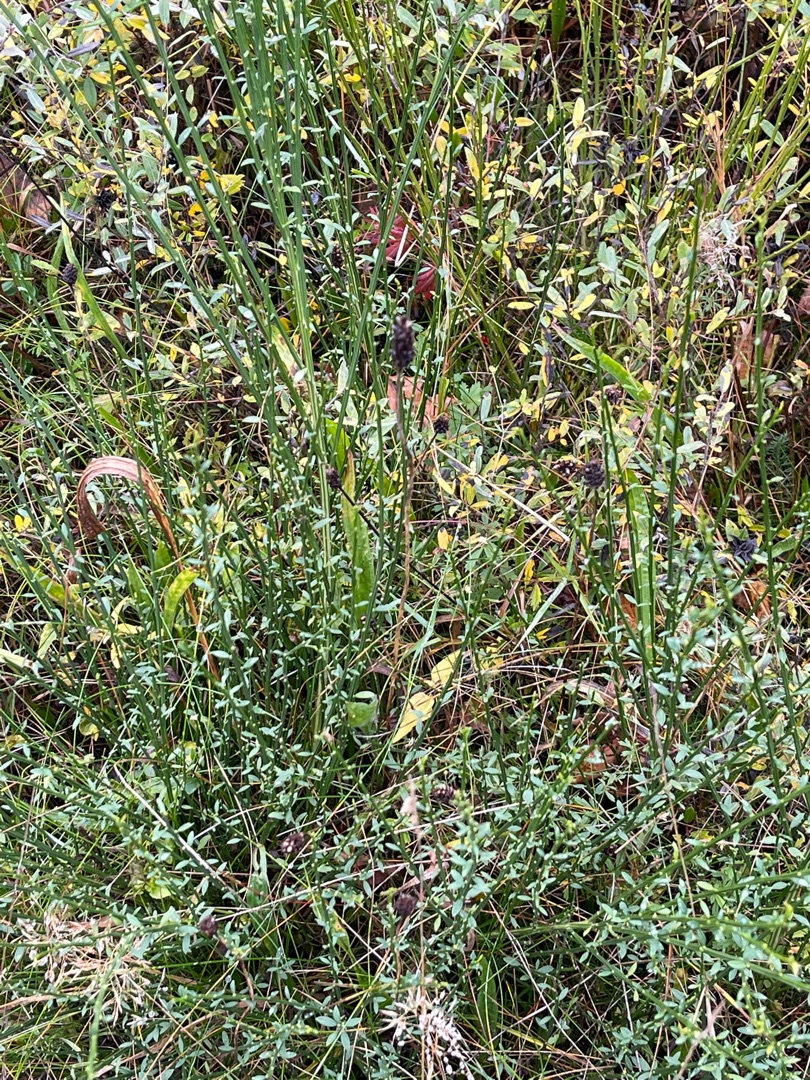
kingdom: Plantae
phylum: Tracheophyta
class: Magnoliopsida
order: Fabales
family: Fabaceae
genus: Cytisus
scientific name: Cytisus scoparius
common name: Almindelig gyvel
